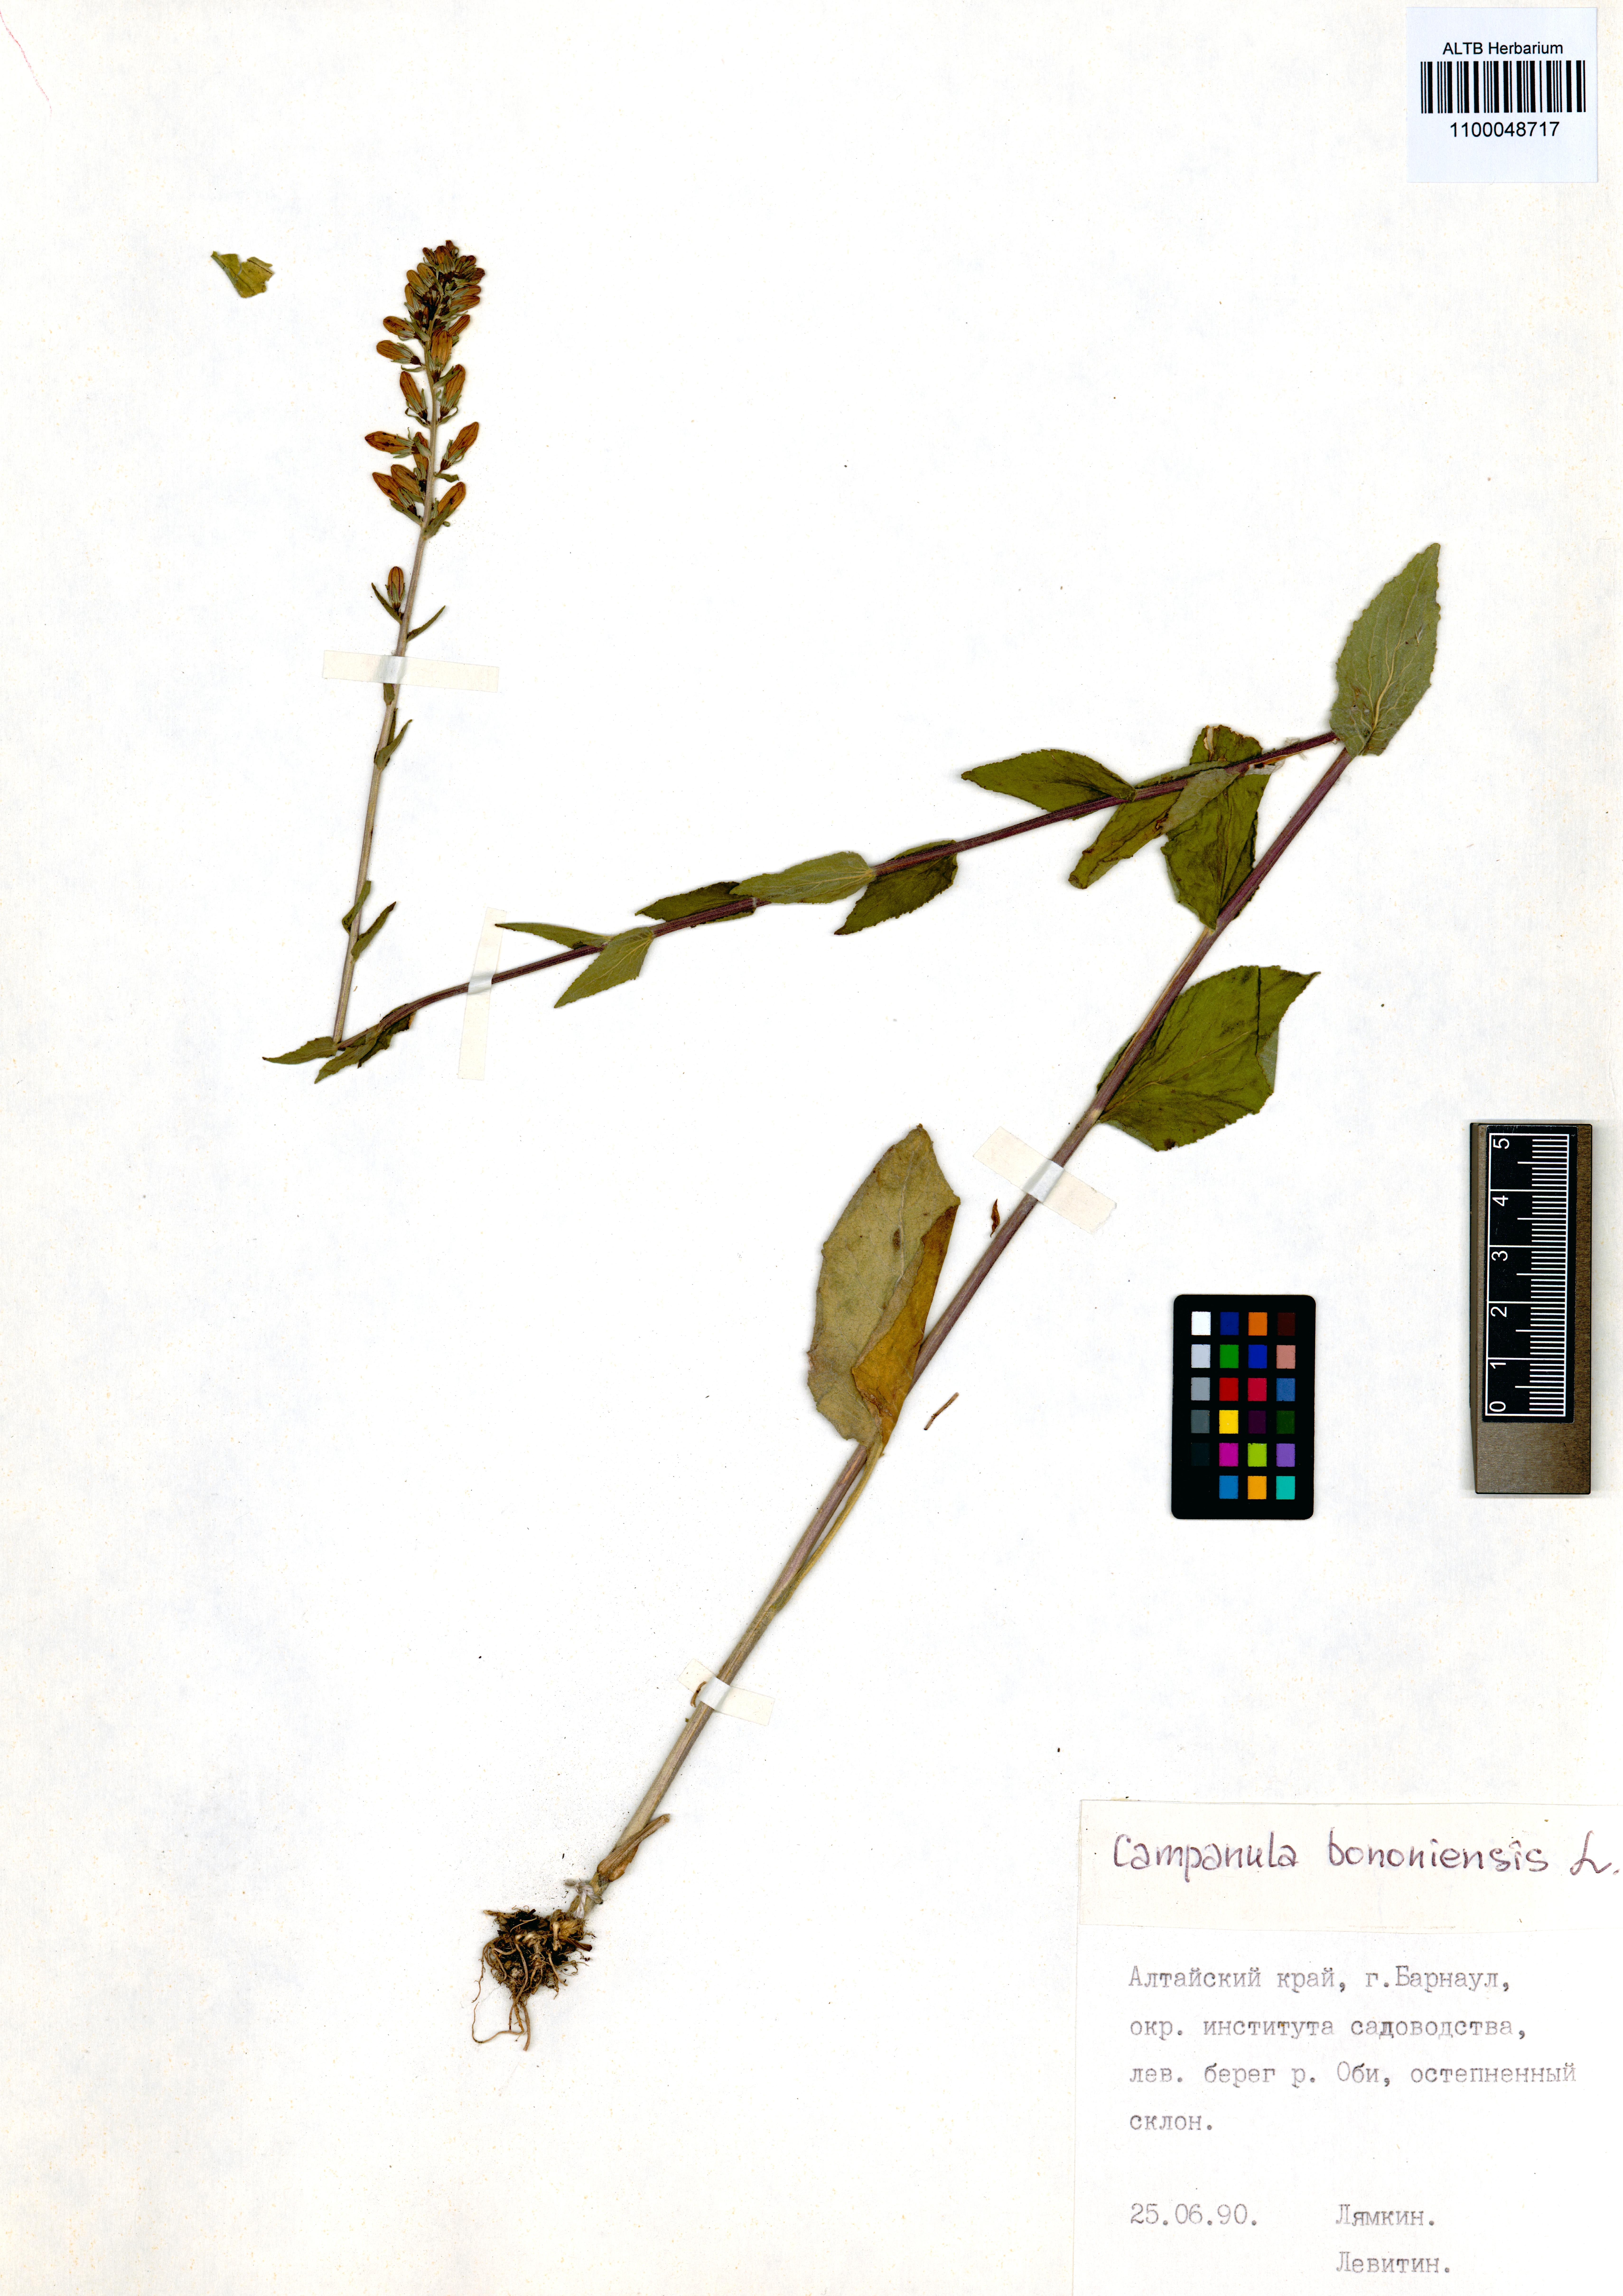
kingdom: Plantae
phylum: Tracheophyta
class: Magnoliopsida
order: Asterales
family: Campanulaceae
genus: Campanula
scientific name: Campanula bononiensis
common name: Pale bellflower
